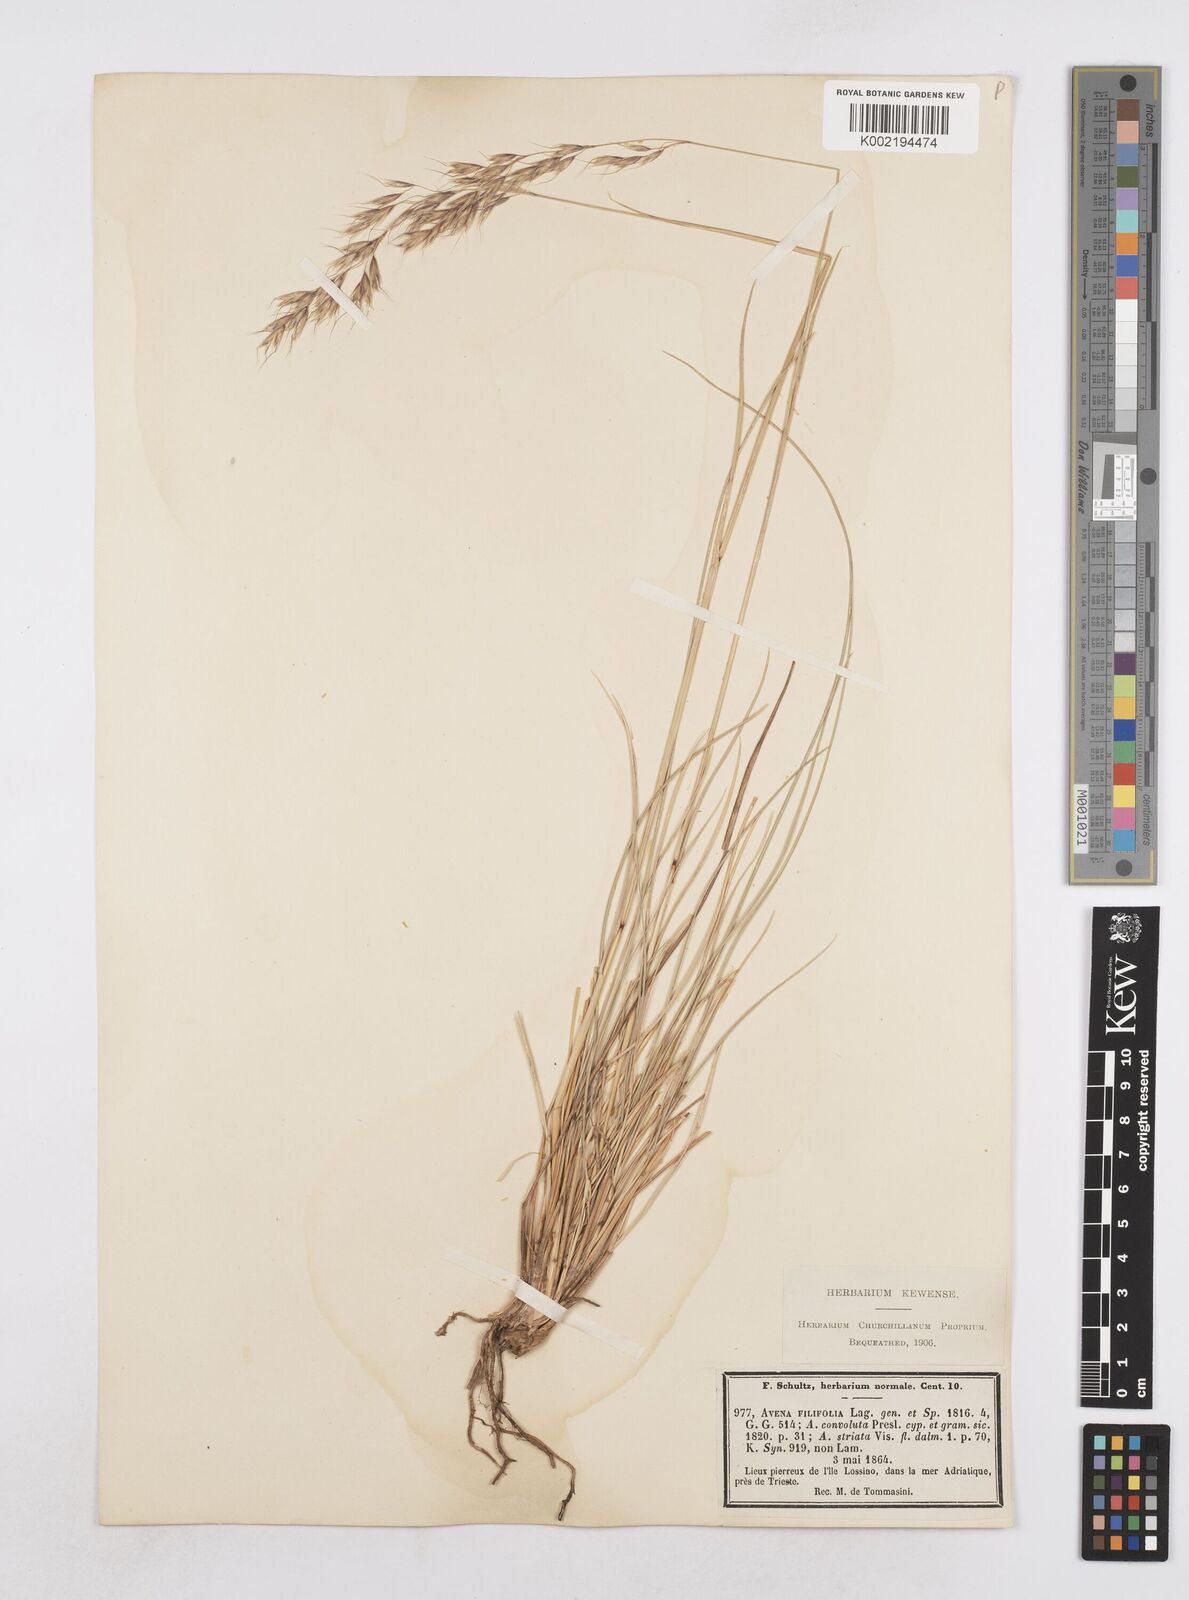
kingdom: Plantae
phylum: Tracheophyta
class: Liliopsida
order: Poales
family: Poaceae
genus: Helictotrichon
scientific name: Helictotrichon convolutum
